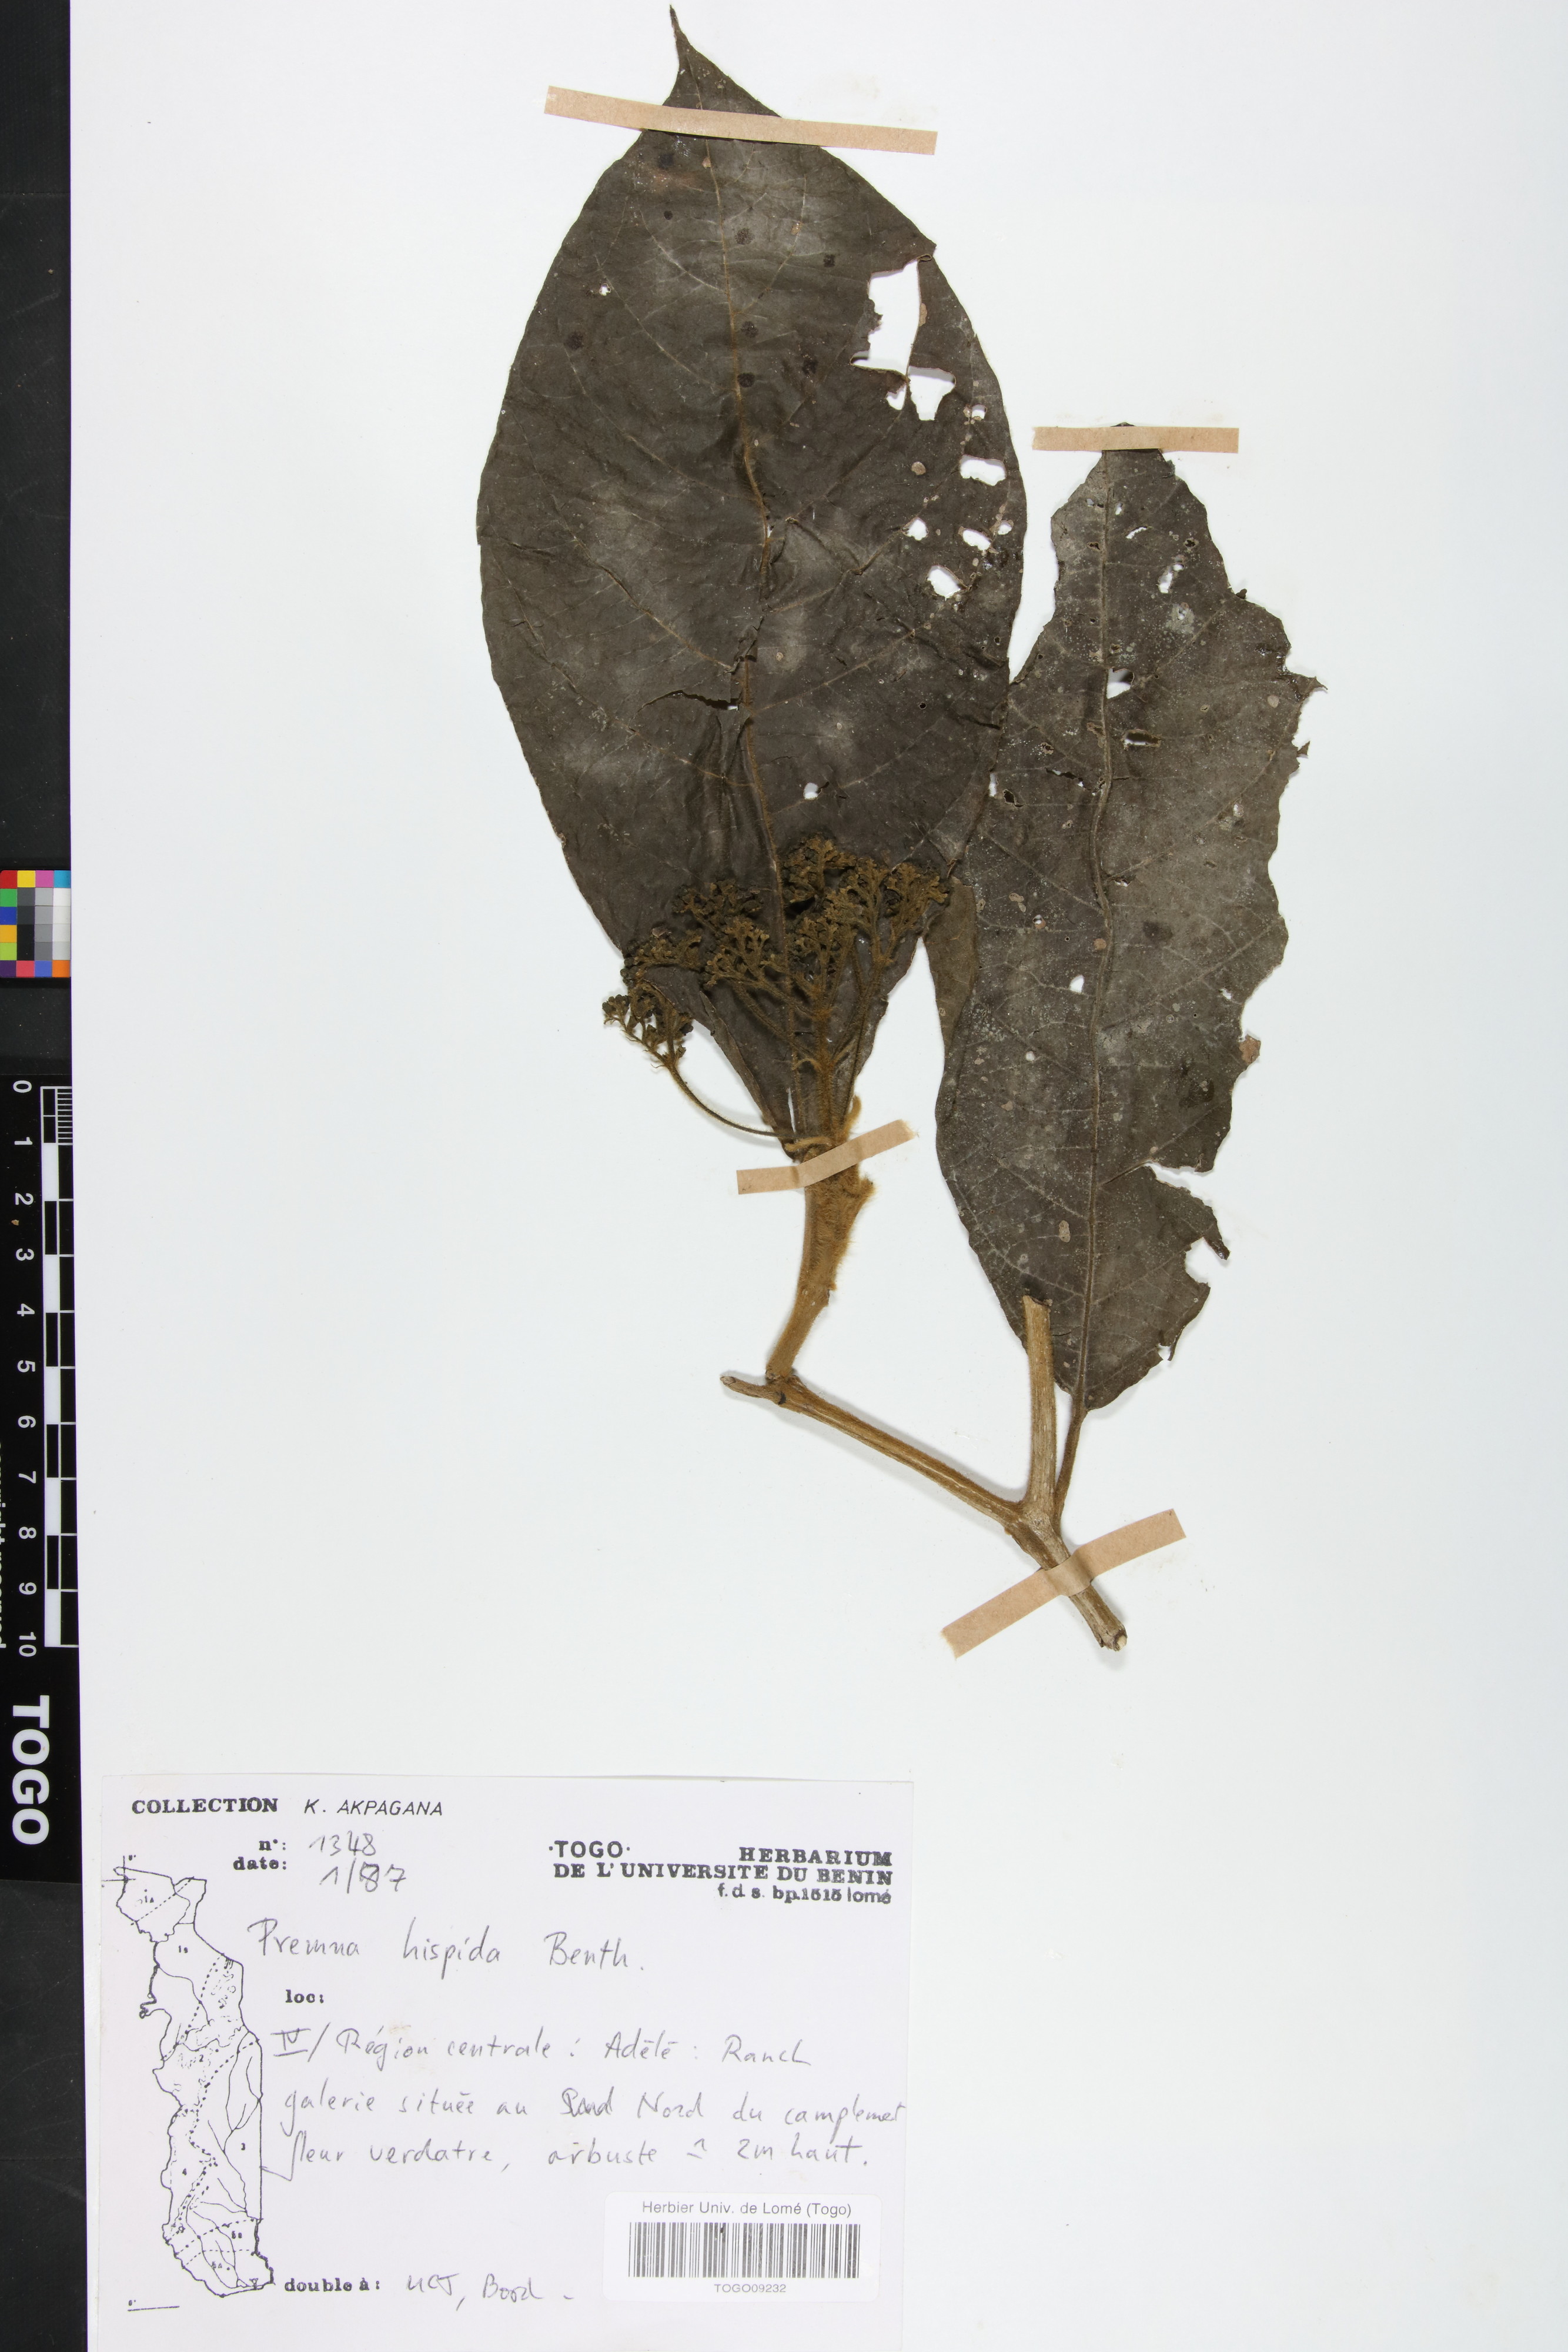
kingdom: Plantae
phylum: Tracheophyta
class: Magnoliopsida
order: Lamiales
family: Lamiaceae
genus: Premna
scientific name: Premna hispida
